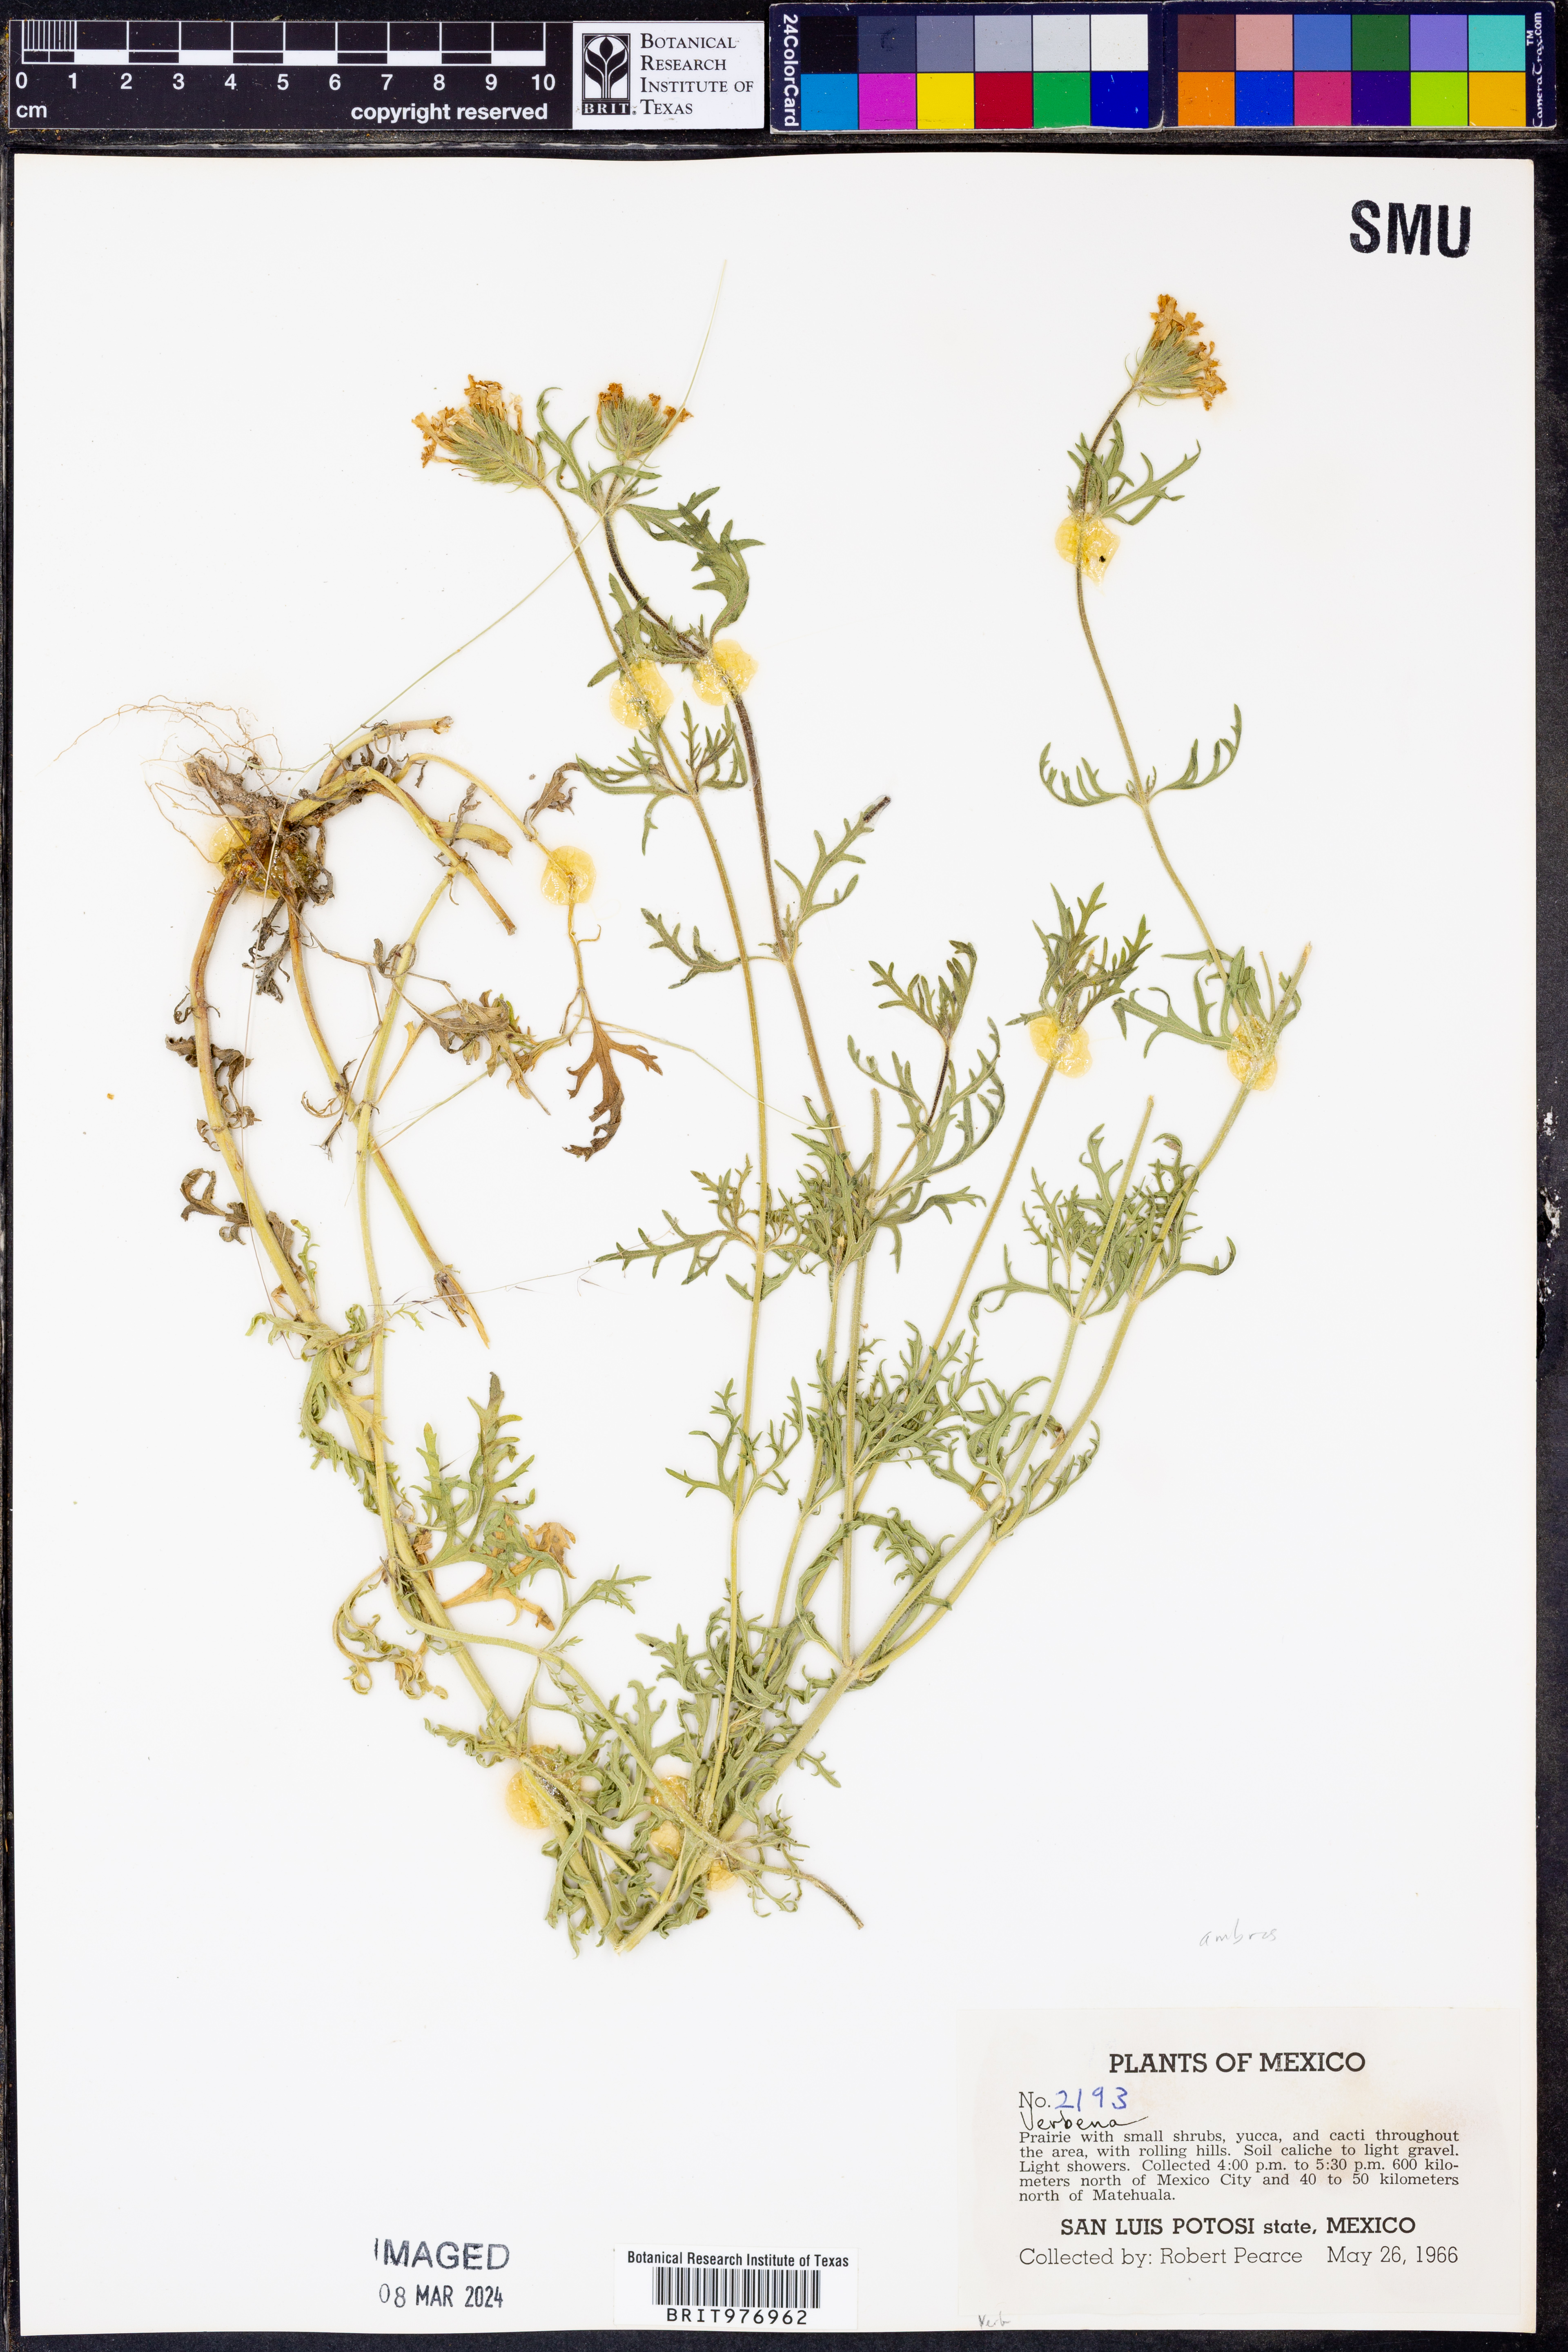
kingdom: Plantae
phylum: Tracheophyta
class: Magnoliopsida
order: Lamiales
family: Verbenaceae
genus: Verbena
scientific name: Verbena
